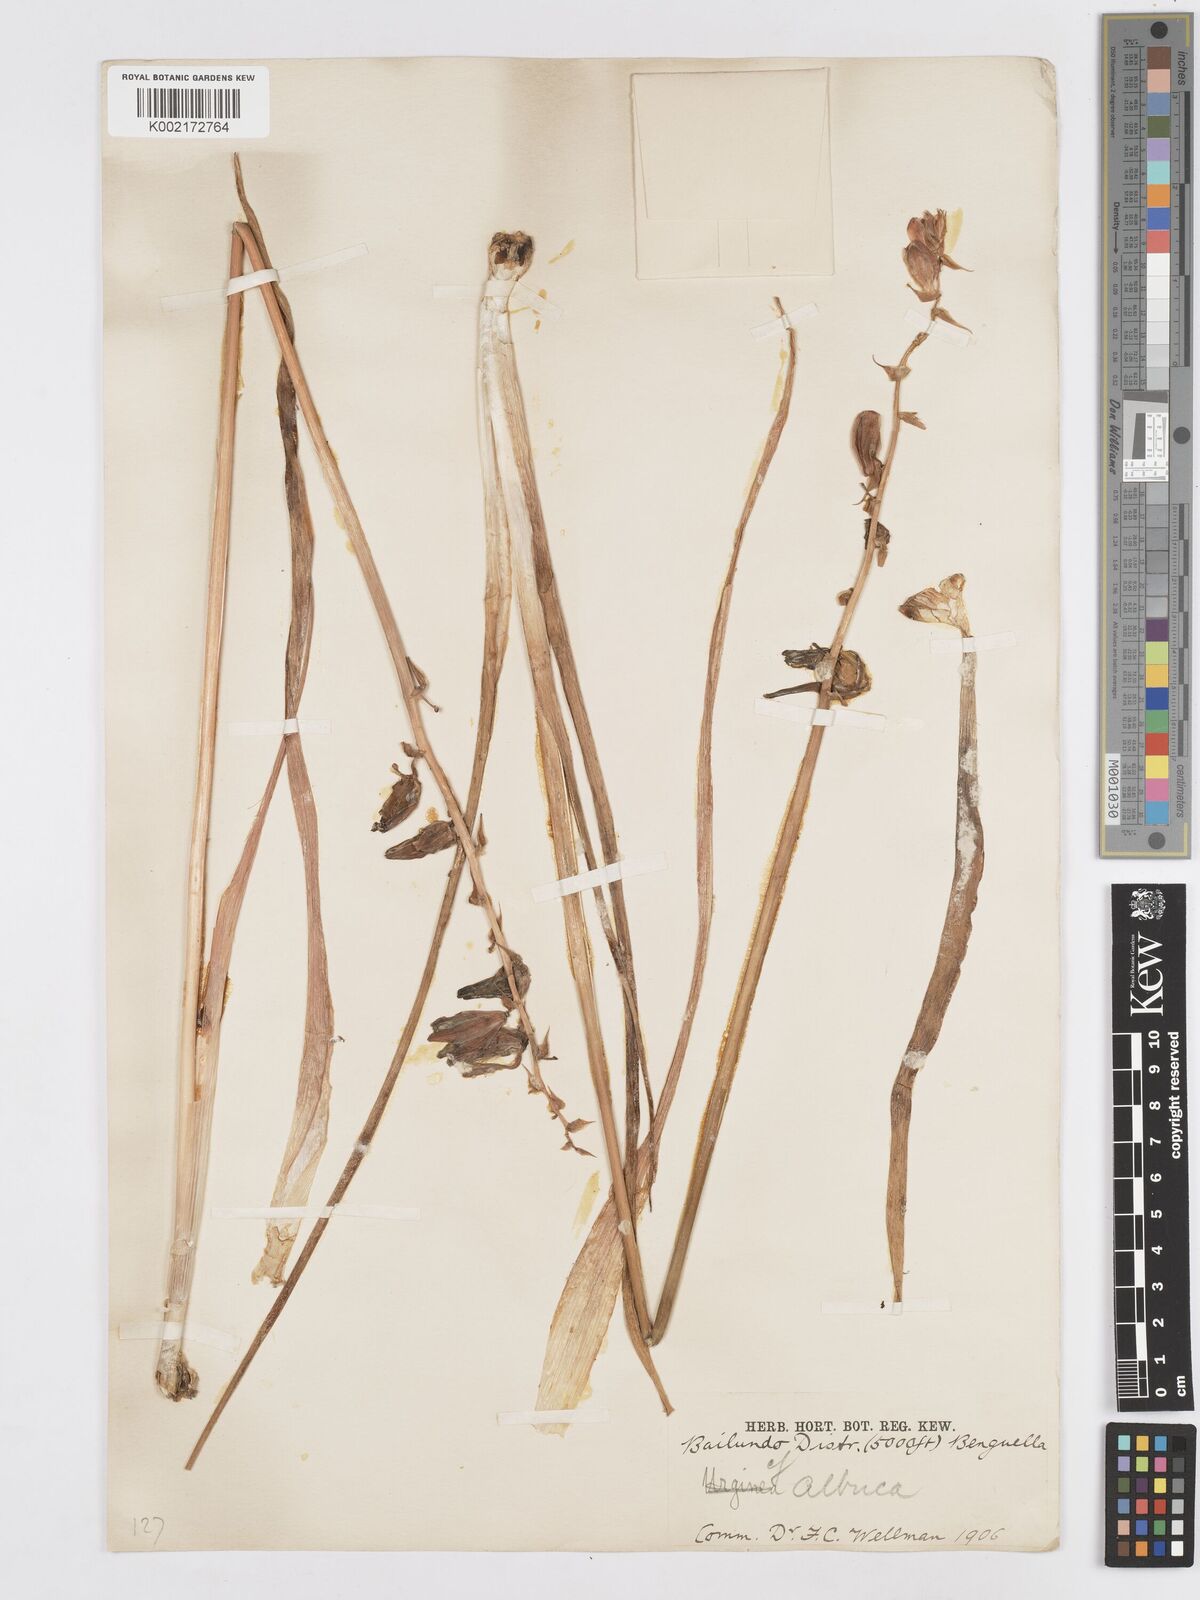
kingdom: Plantae
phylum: Tracheophyta
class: Liliopsida
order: Asparagales
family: Asparagaceae
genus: Albuca
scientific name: Albuca abyssinica
